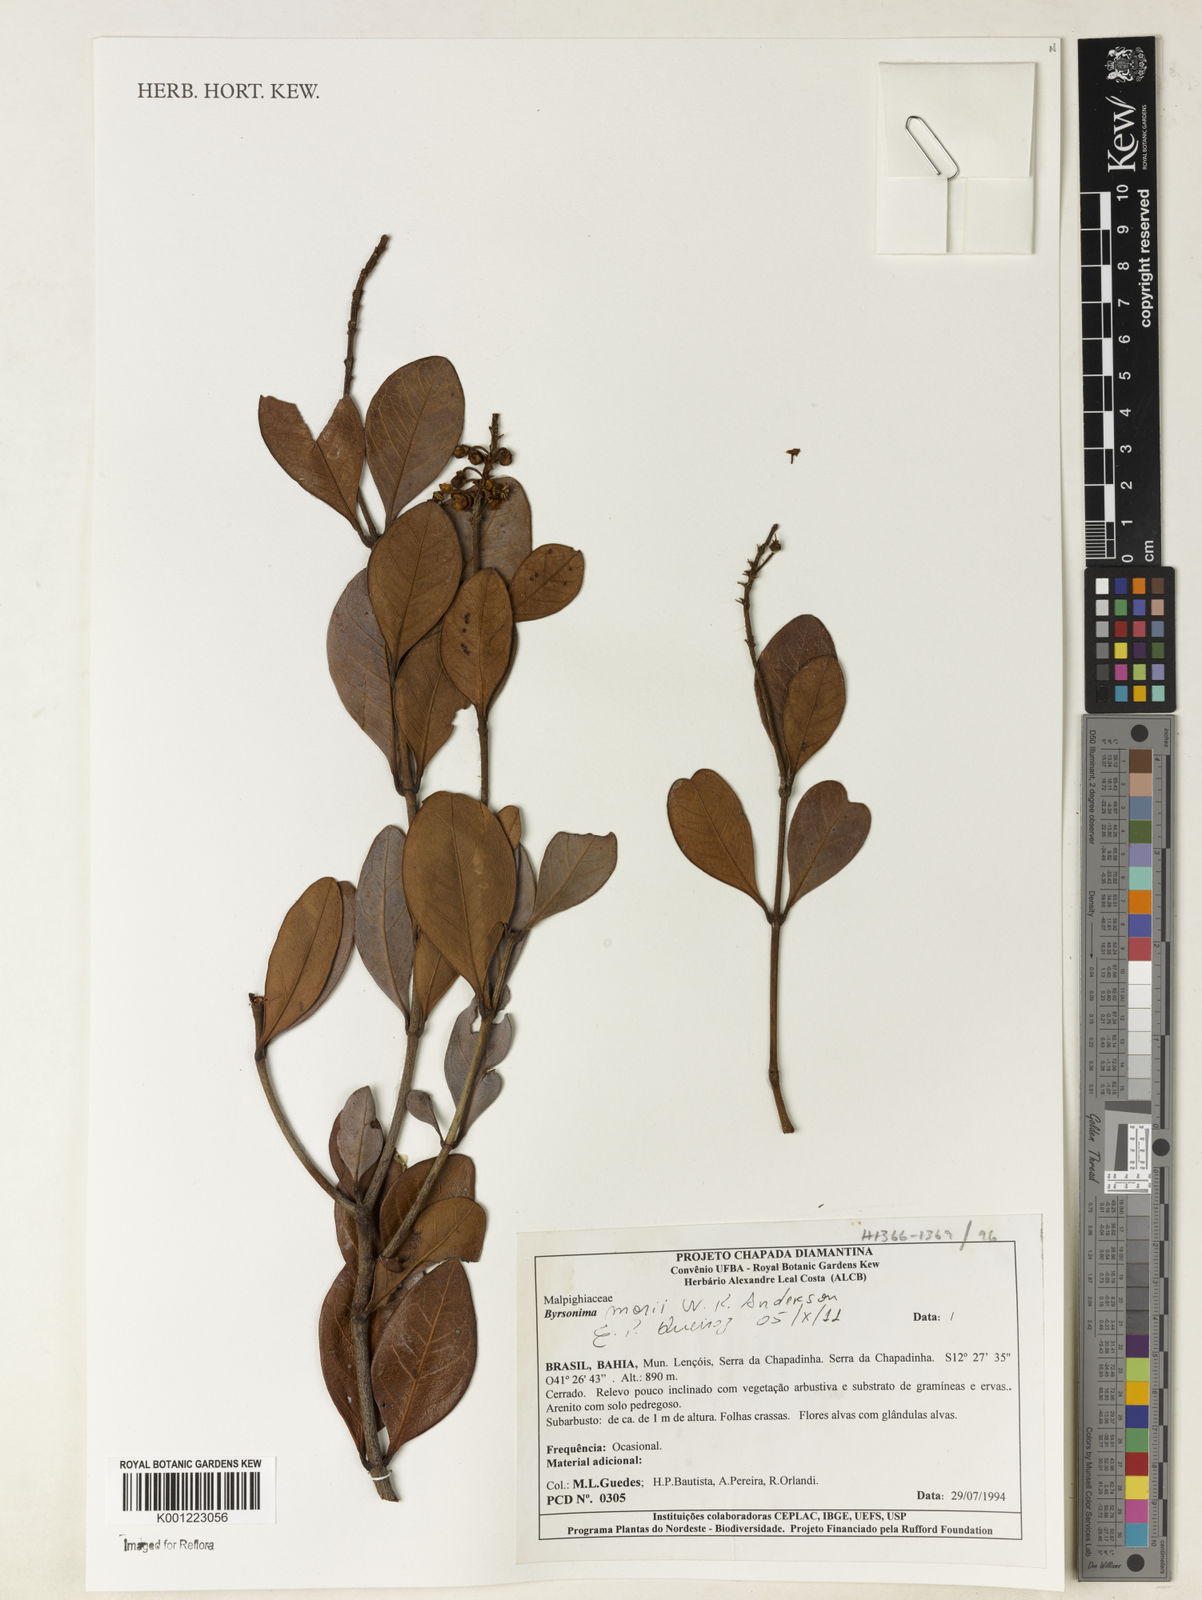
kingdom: Plantae
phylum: Tracheophyta
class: Magnoliopsida
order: Malpighiales
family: Malpighiaceae
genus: Byrsonima
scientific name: Byrsonima morii
